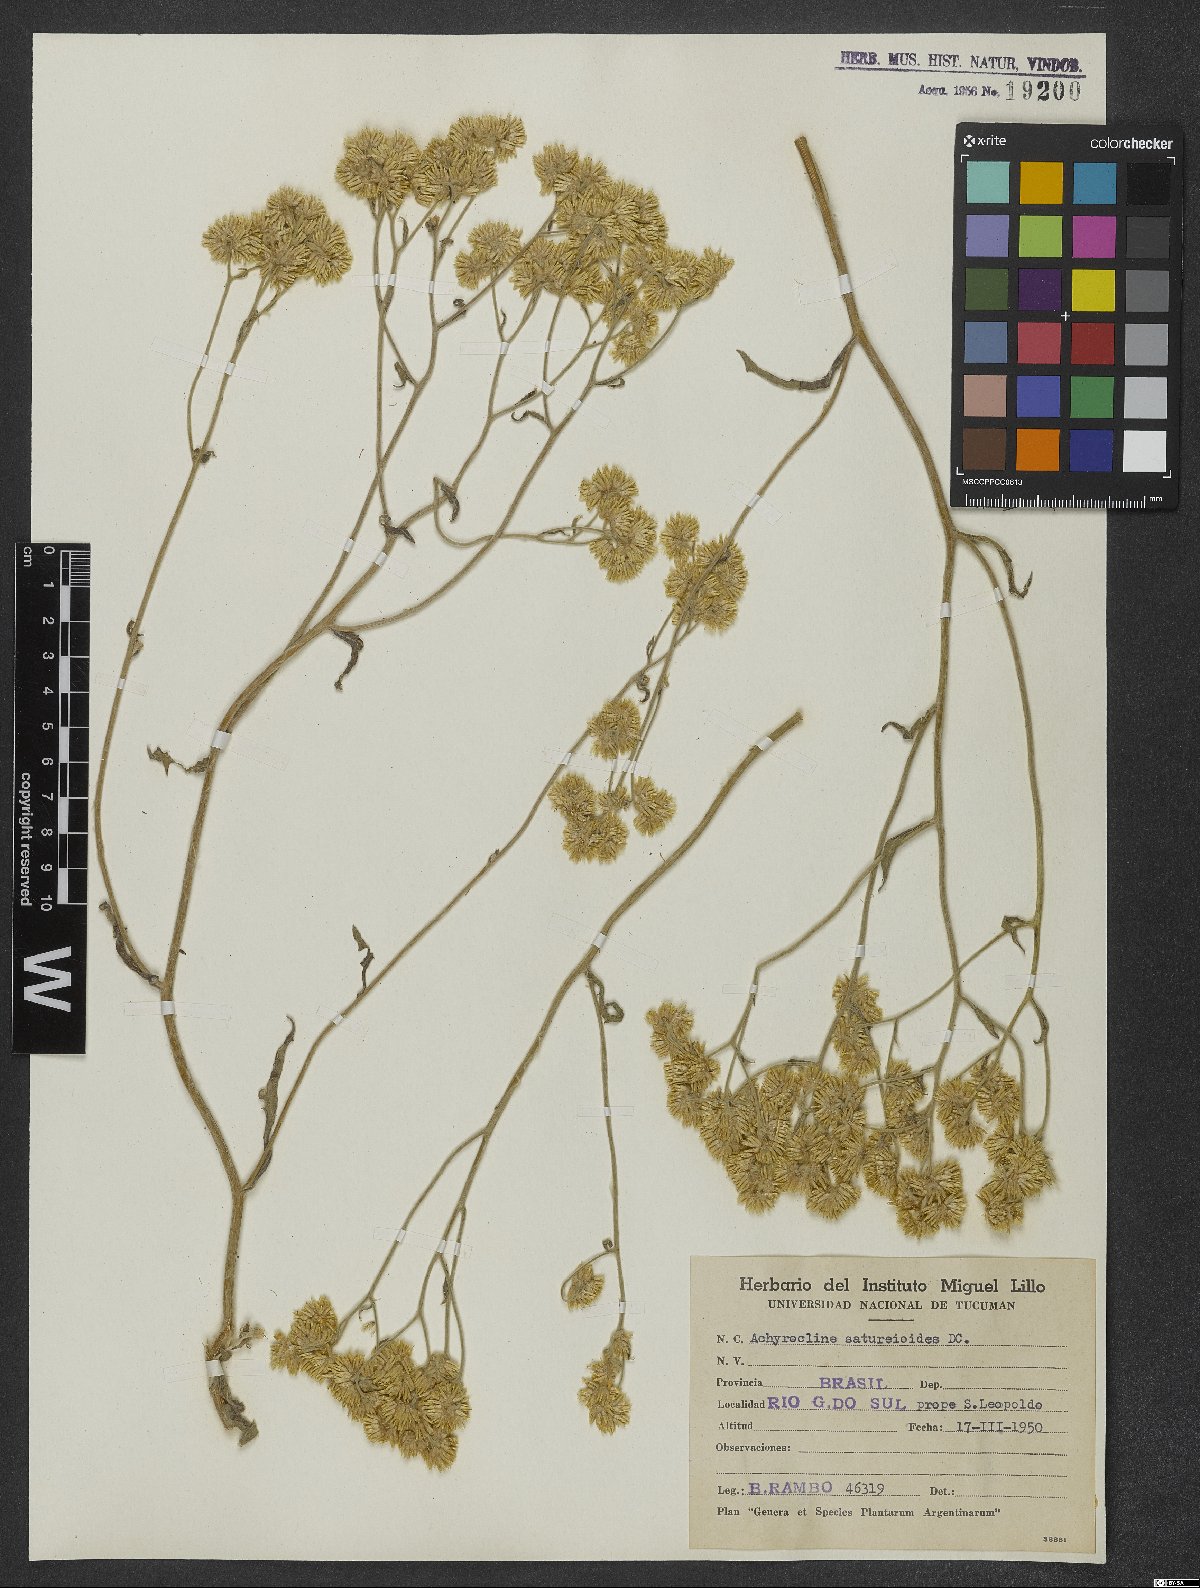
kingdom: Plantae
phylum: Tracheophyta
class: Magnoliopsida
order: Asterales
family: Asteraceae
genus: Achyrocline
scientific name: Achyrocline satureioides
